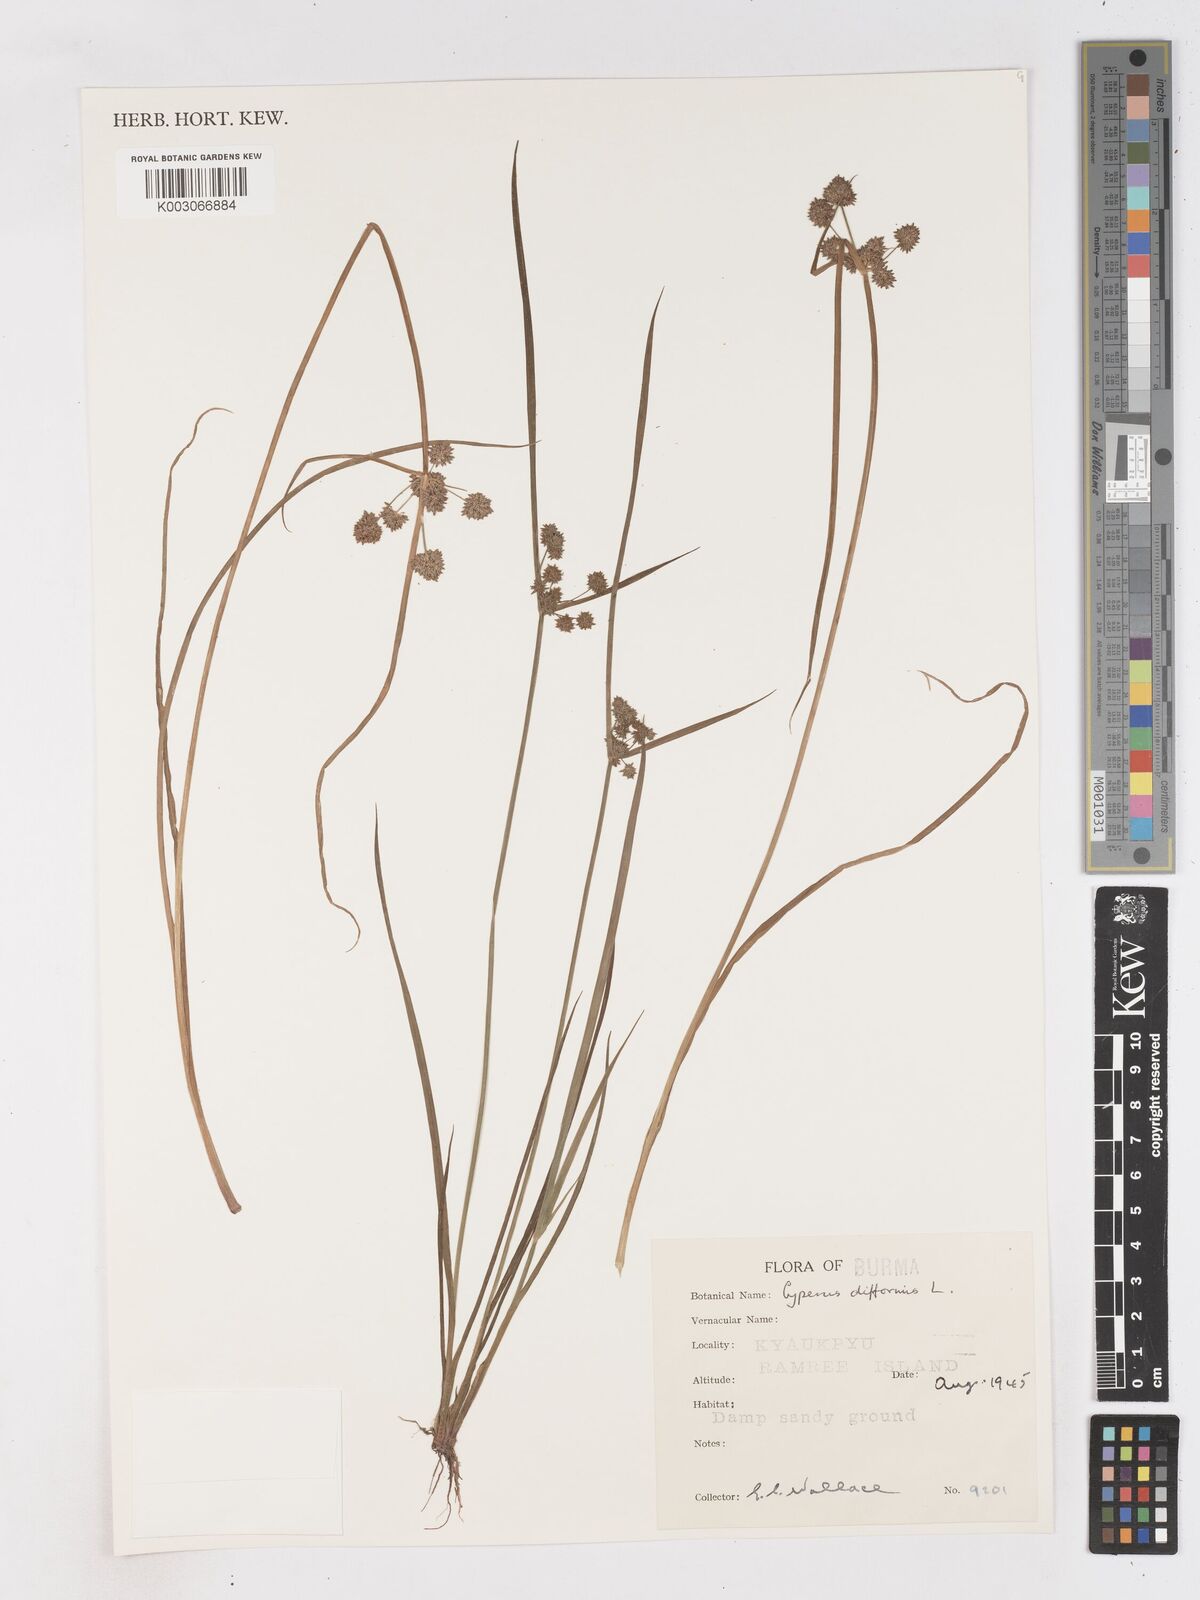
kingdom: Plantae
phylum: Tracheophyta
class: Liliopsida
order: Poales
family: Cyperaceae
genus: Cyperus
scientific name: Cyperus difformis
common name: Variable flatsedge
